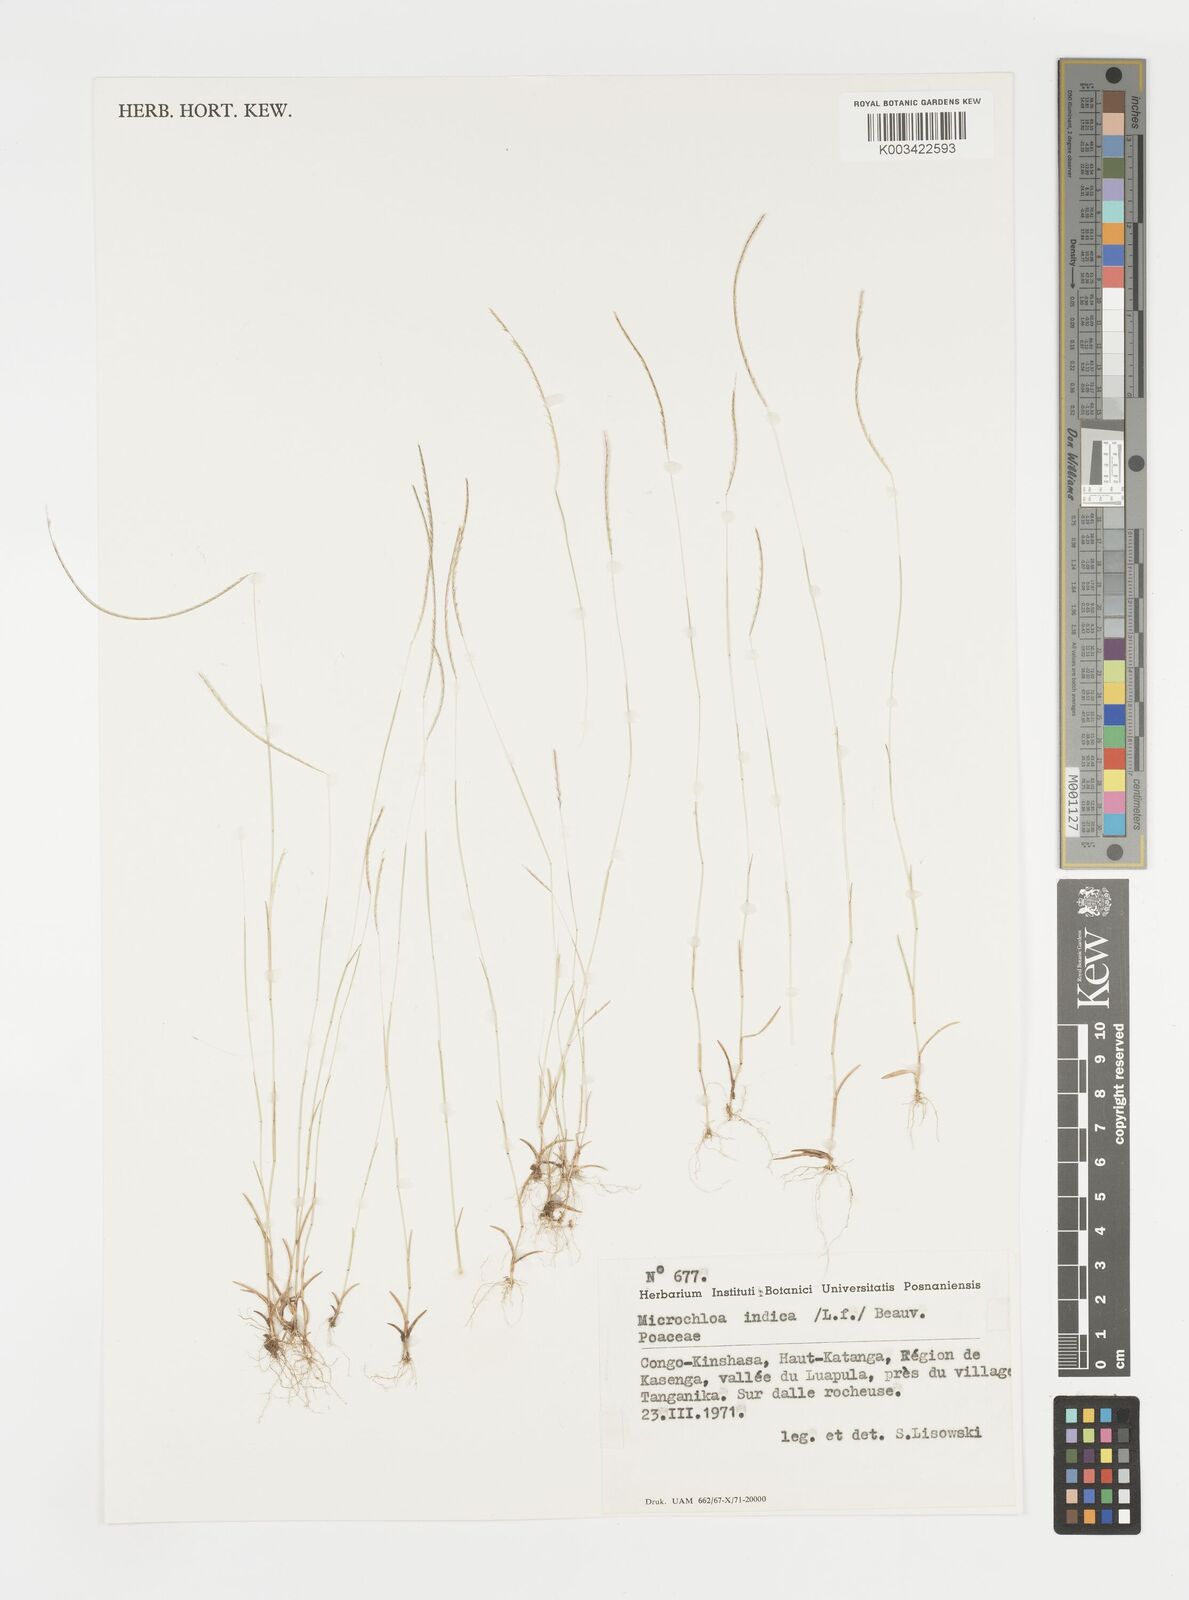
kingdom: Plantae
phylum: Tracheophyta
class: Liliopsida
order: Poales
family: Poaceae
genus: Microchloa
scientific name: Microchloa indica
